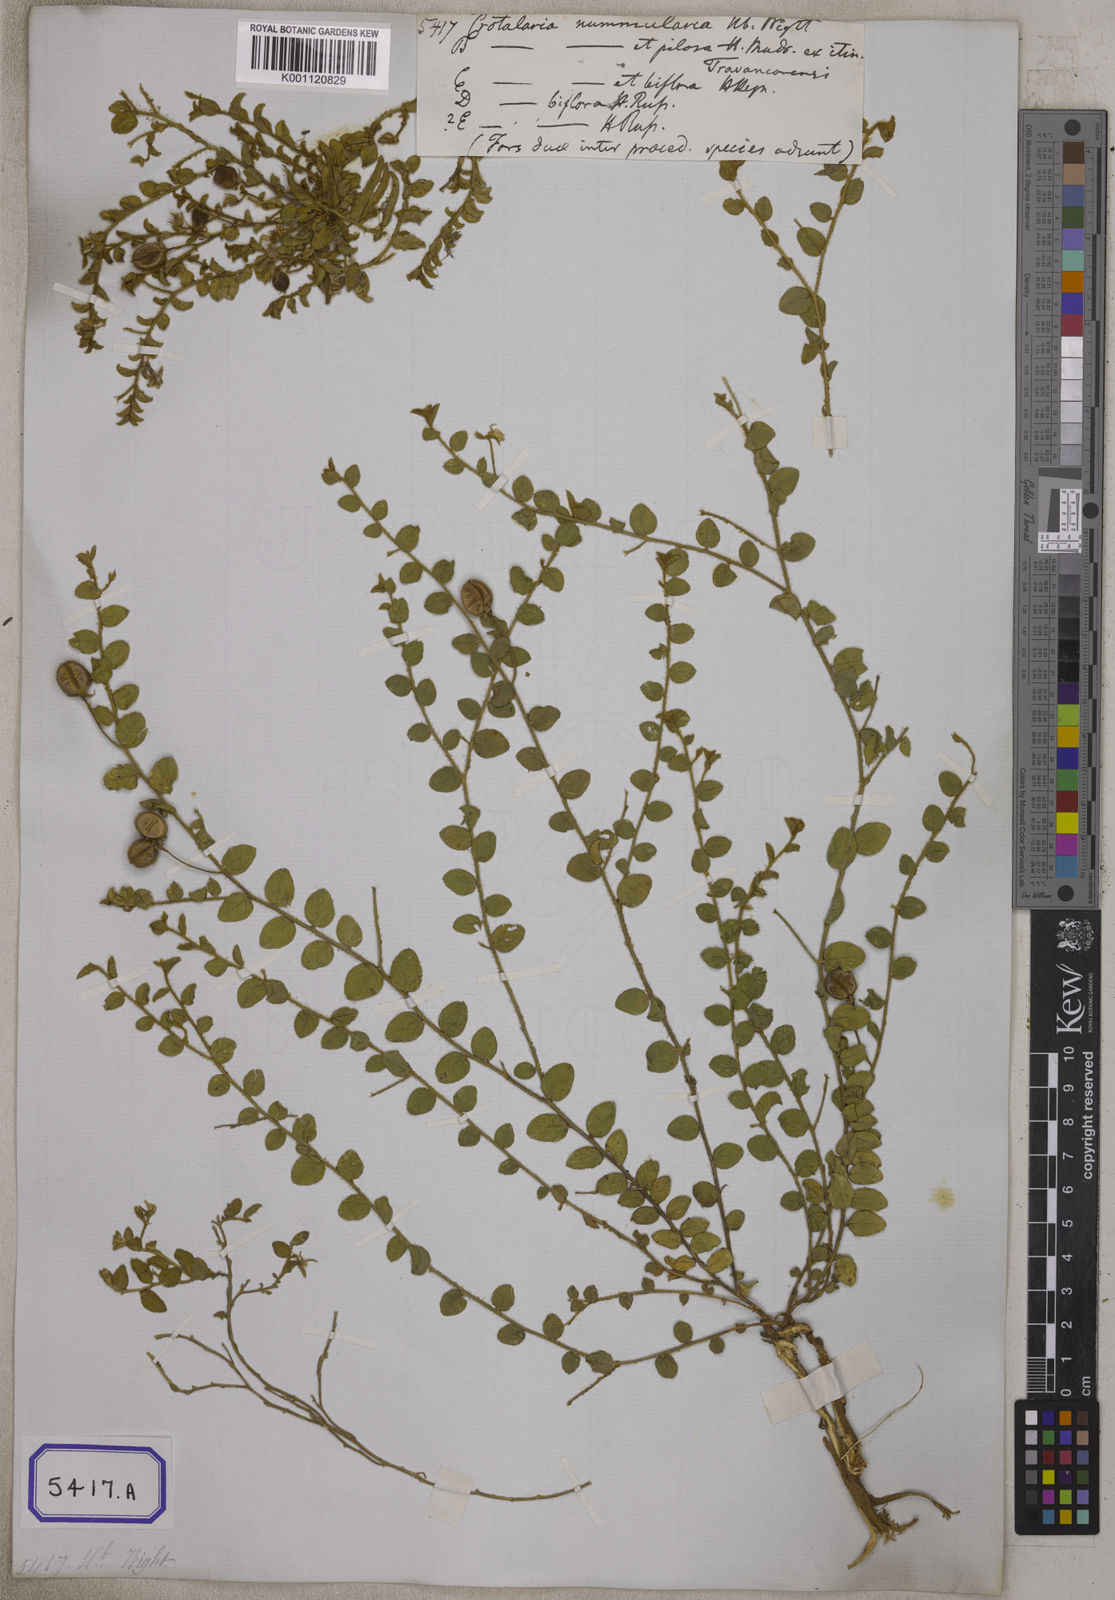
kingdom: Plantae
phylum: Tracheophyta
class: Magnoliopsida
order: Fabales
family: Fabaceae
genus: Crotalaria
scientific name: Crotalaria angulata
